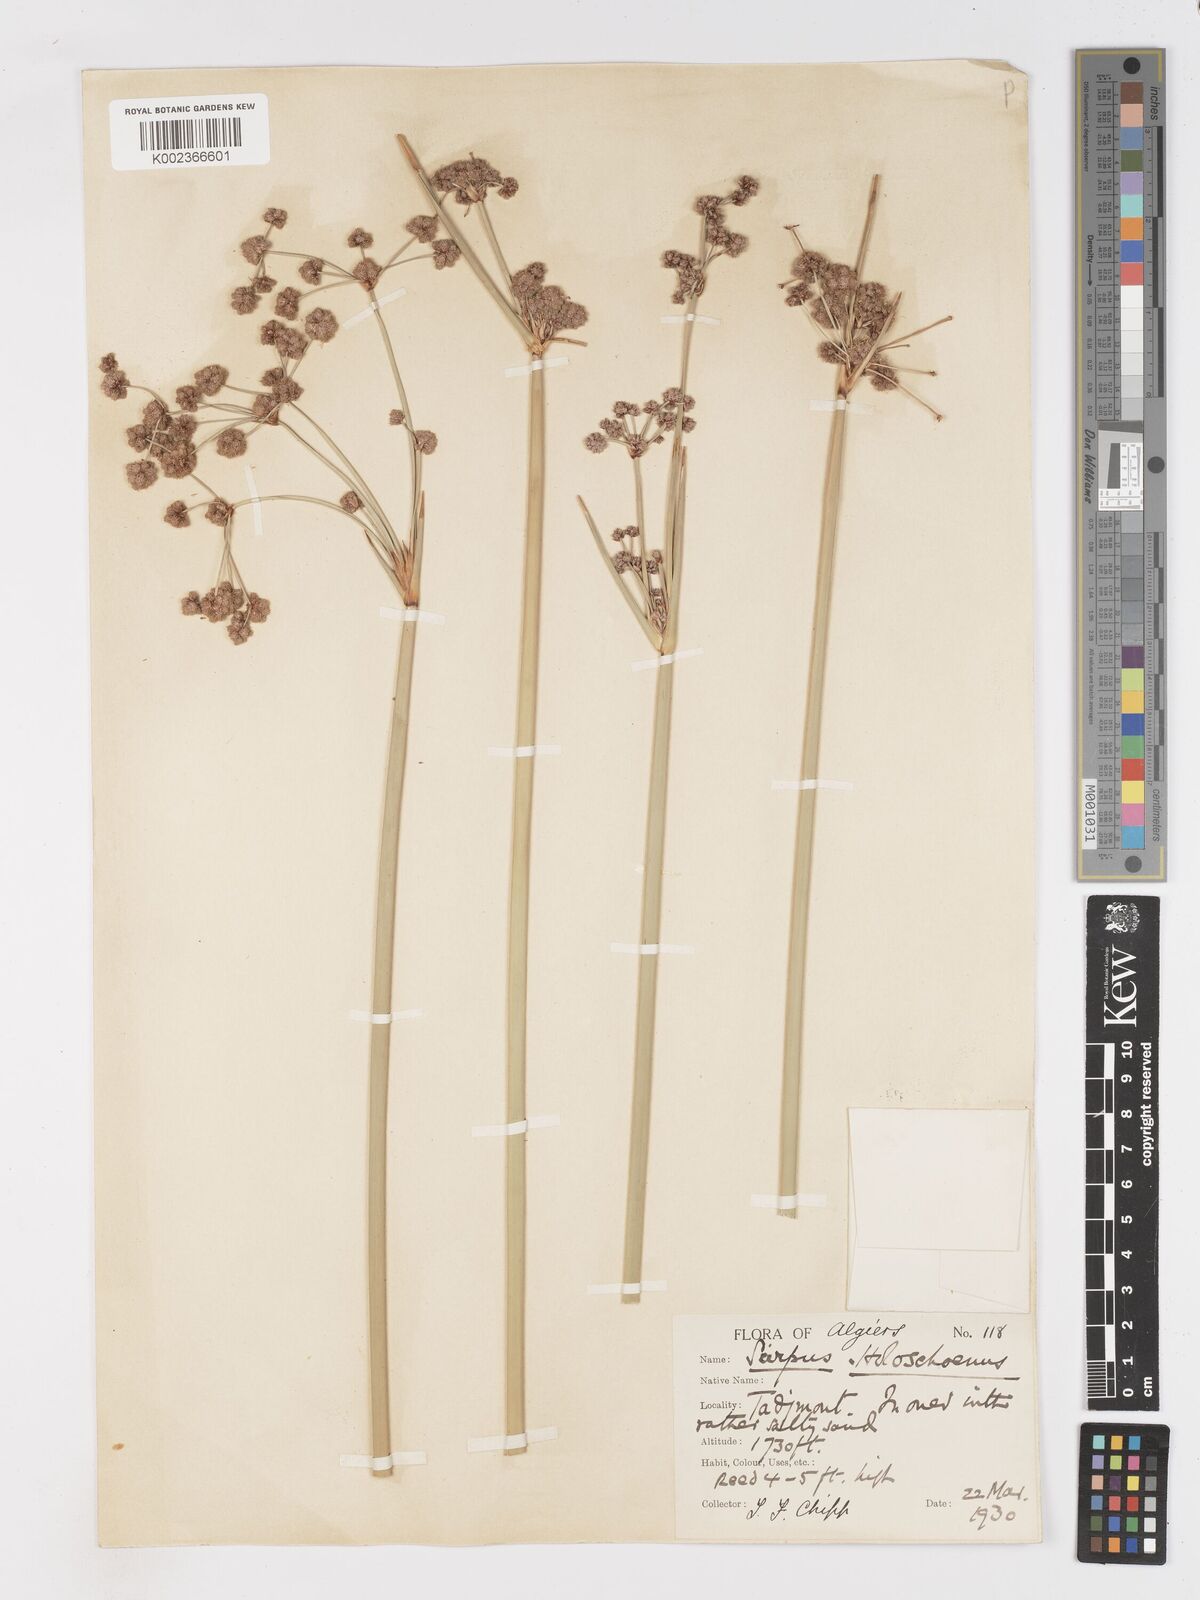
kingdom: Plantae
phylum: Tracheophyta
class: Liliopsida
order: Poales
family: Cyperaceae
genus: Scirpoides
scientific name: Scirpoides holoschoenus
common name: Round-headed club-rush
